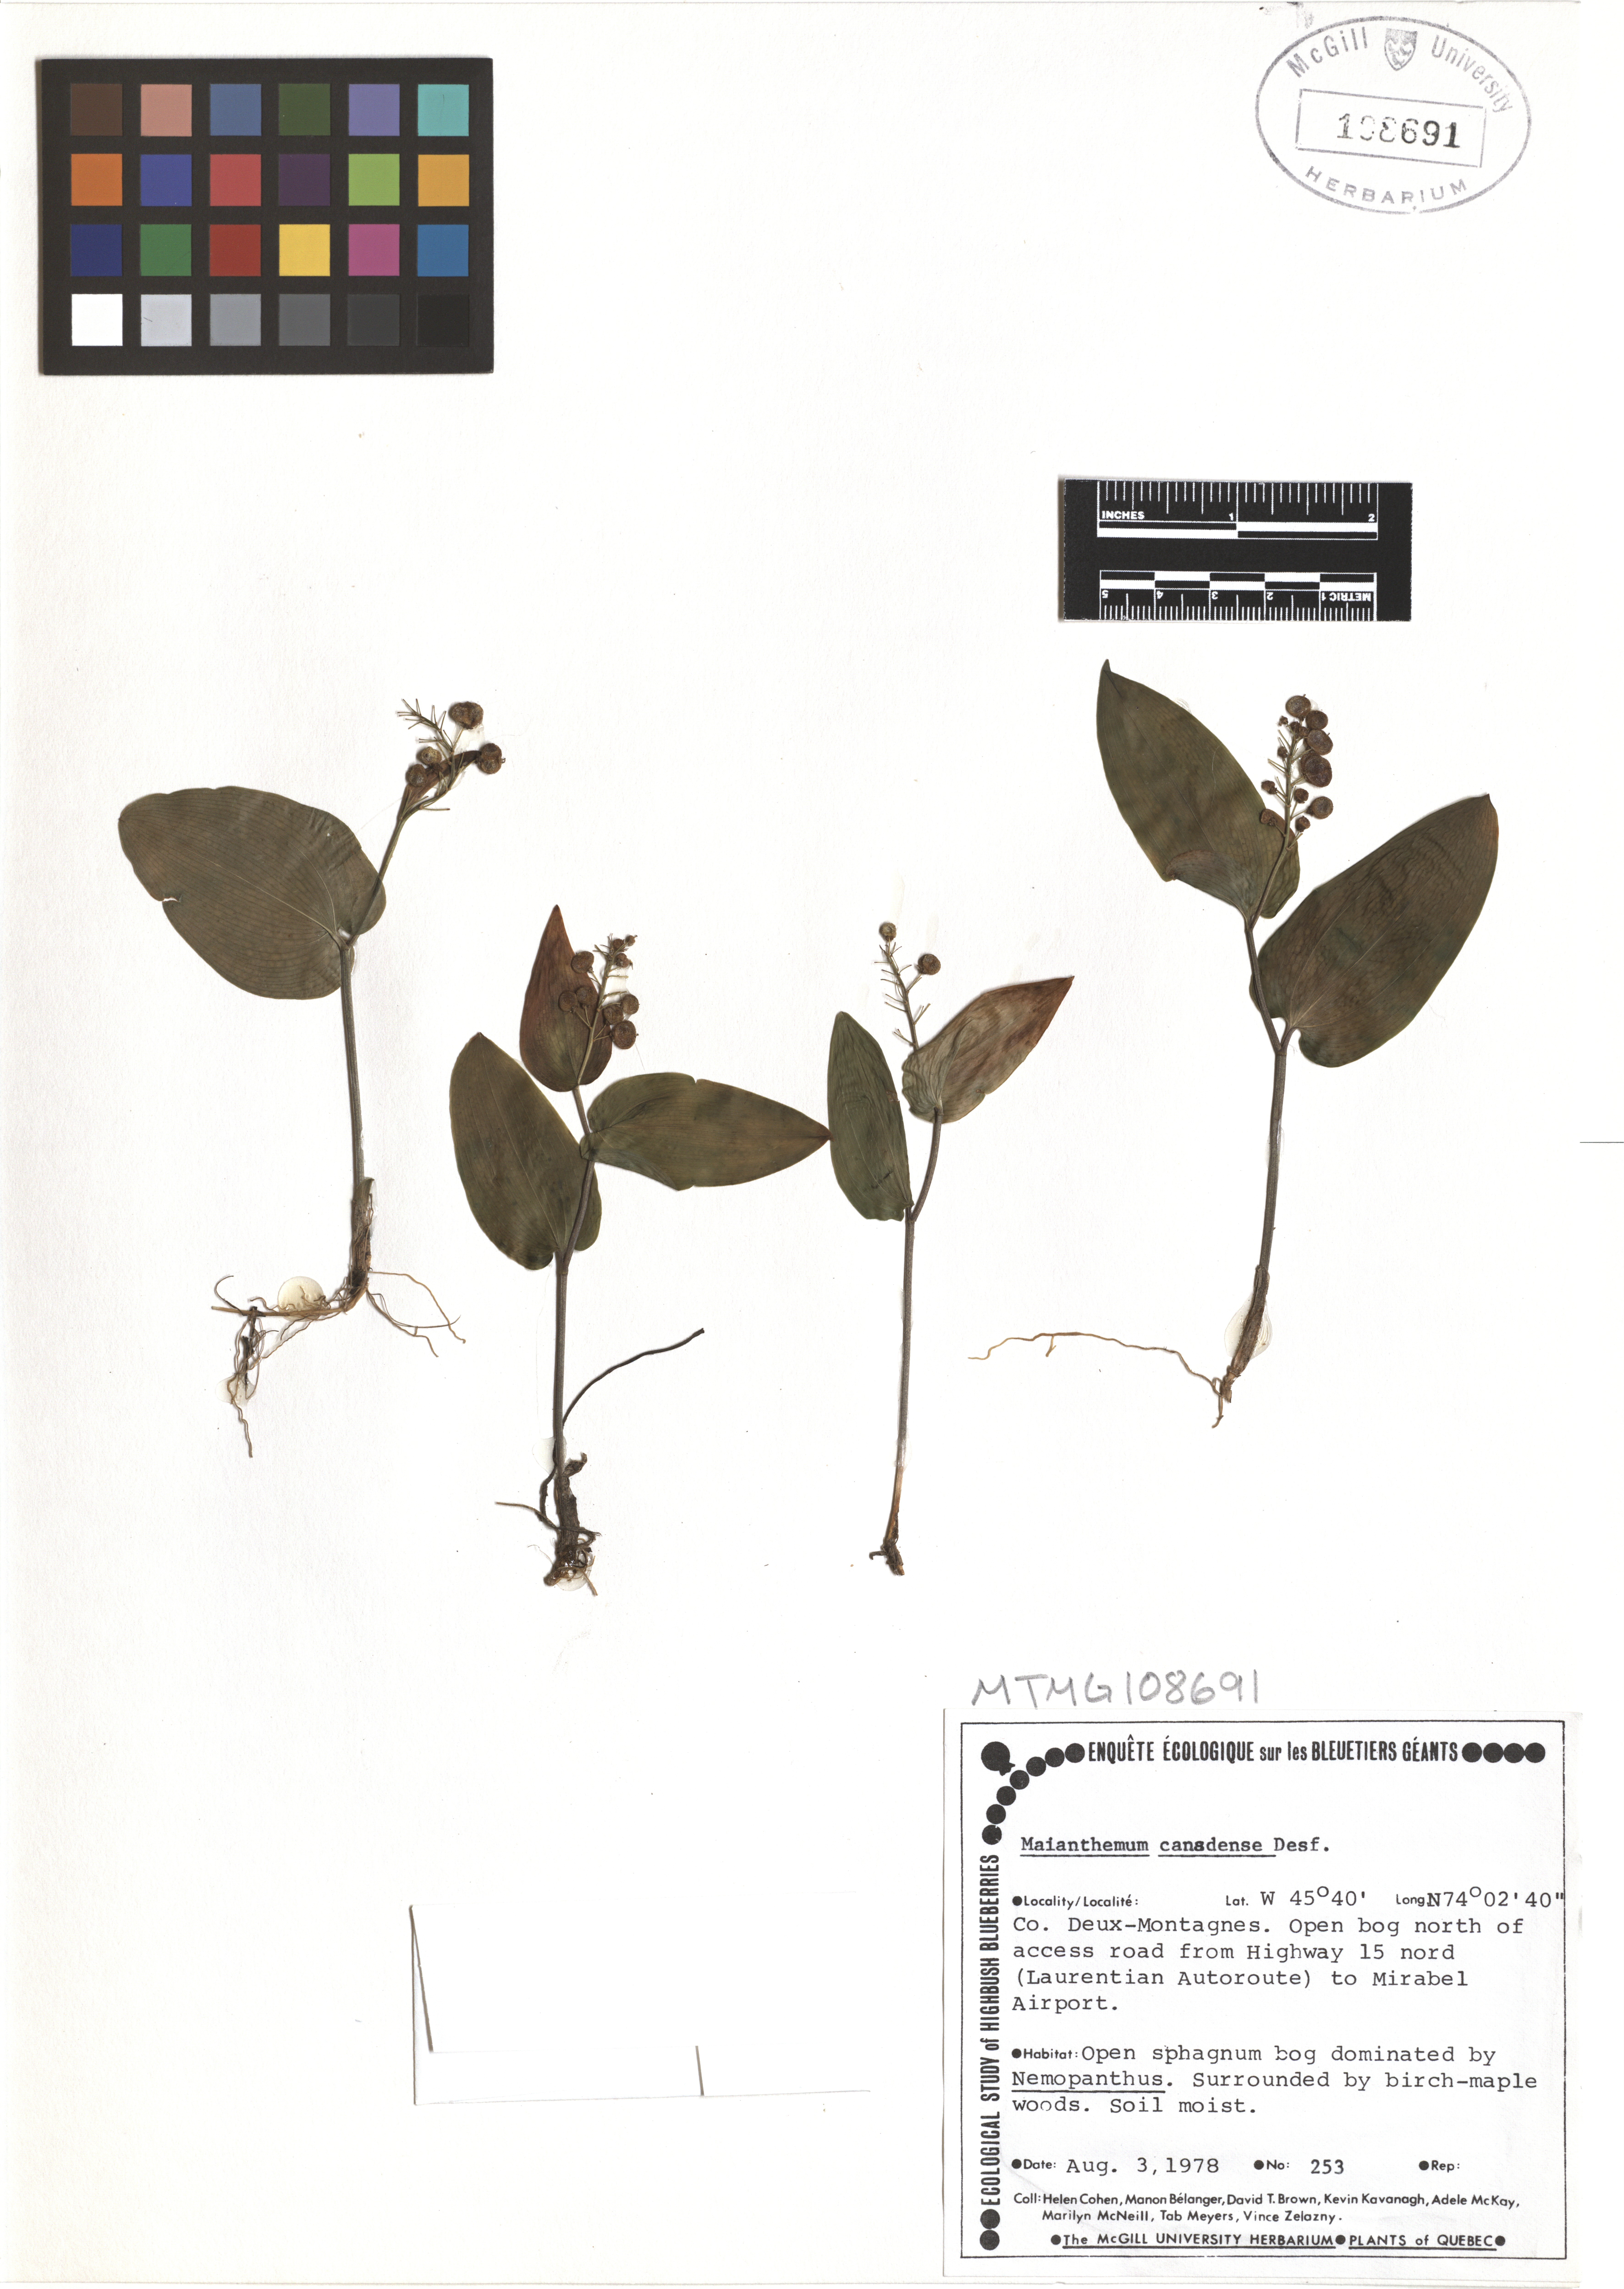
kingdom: Plantae
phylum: Tracheophyta
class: Liliopsida
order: Asparagales
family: Asparagaceae
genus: Maianthemum
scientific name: Maianthemum canadense
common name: False lily-of-the-valley
